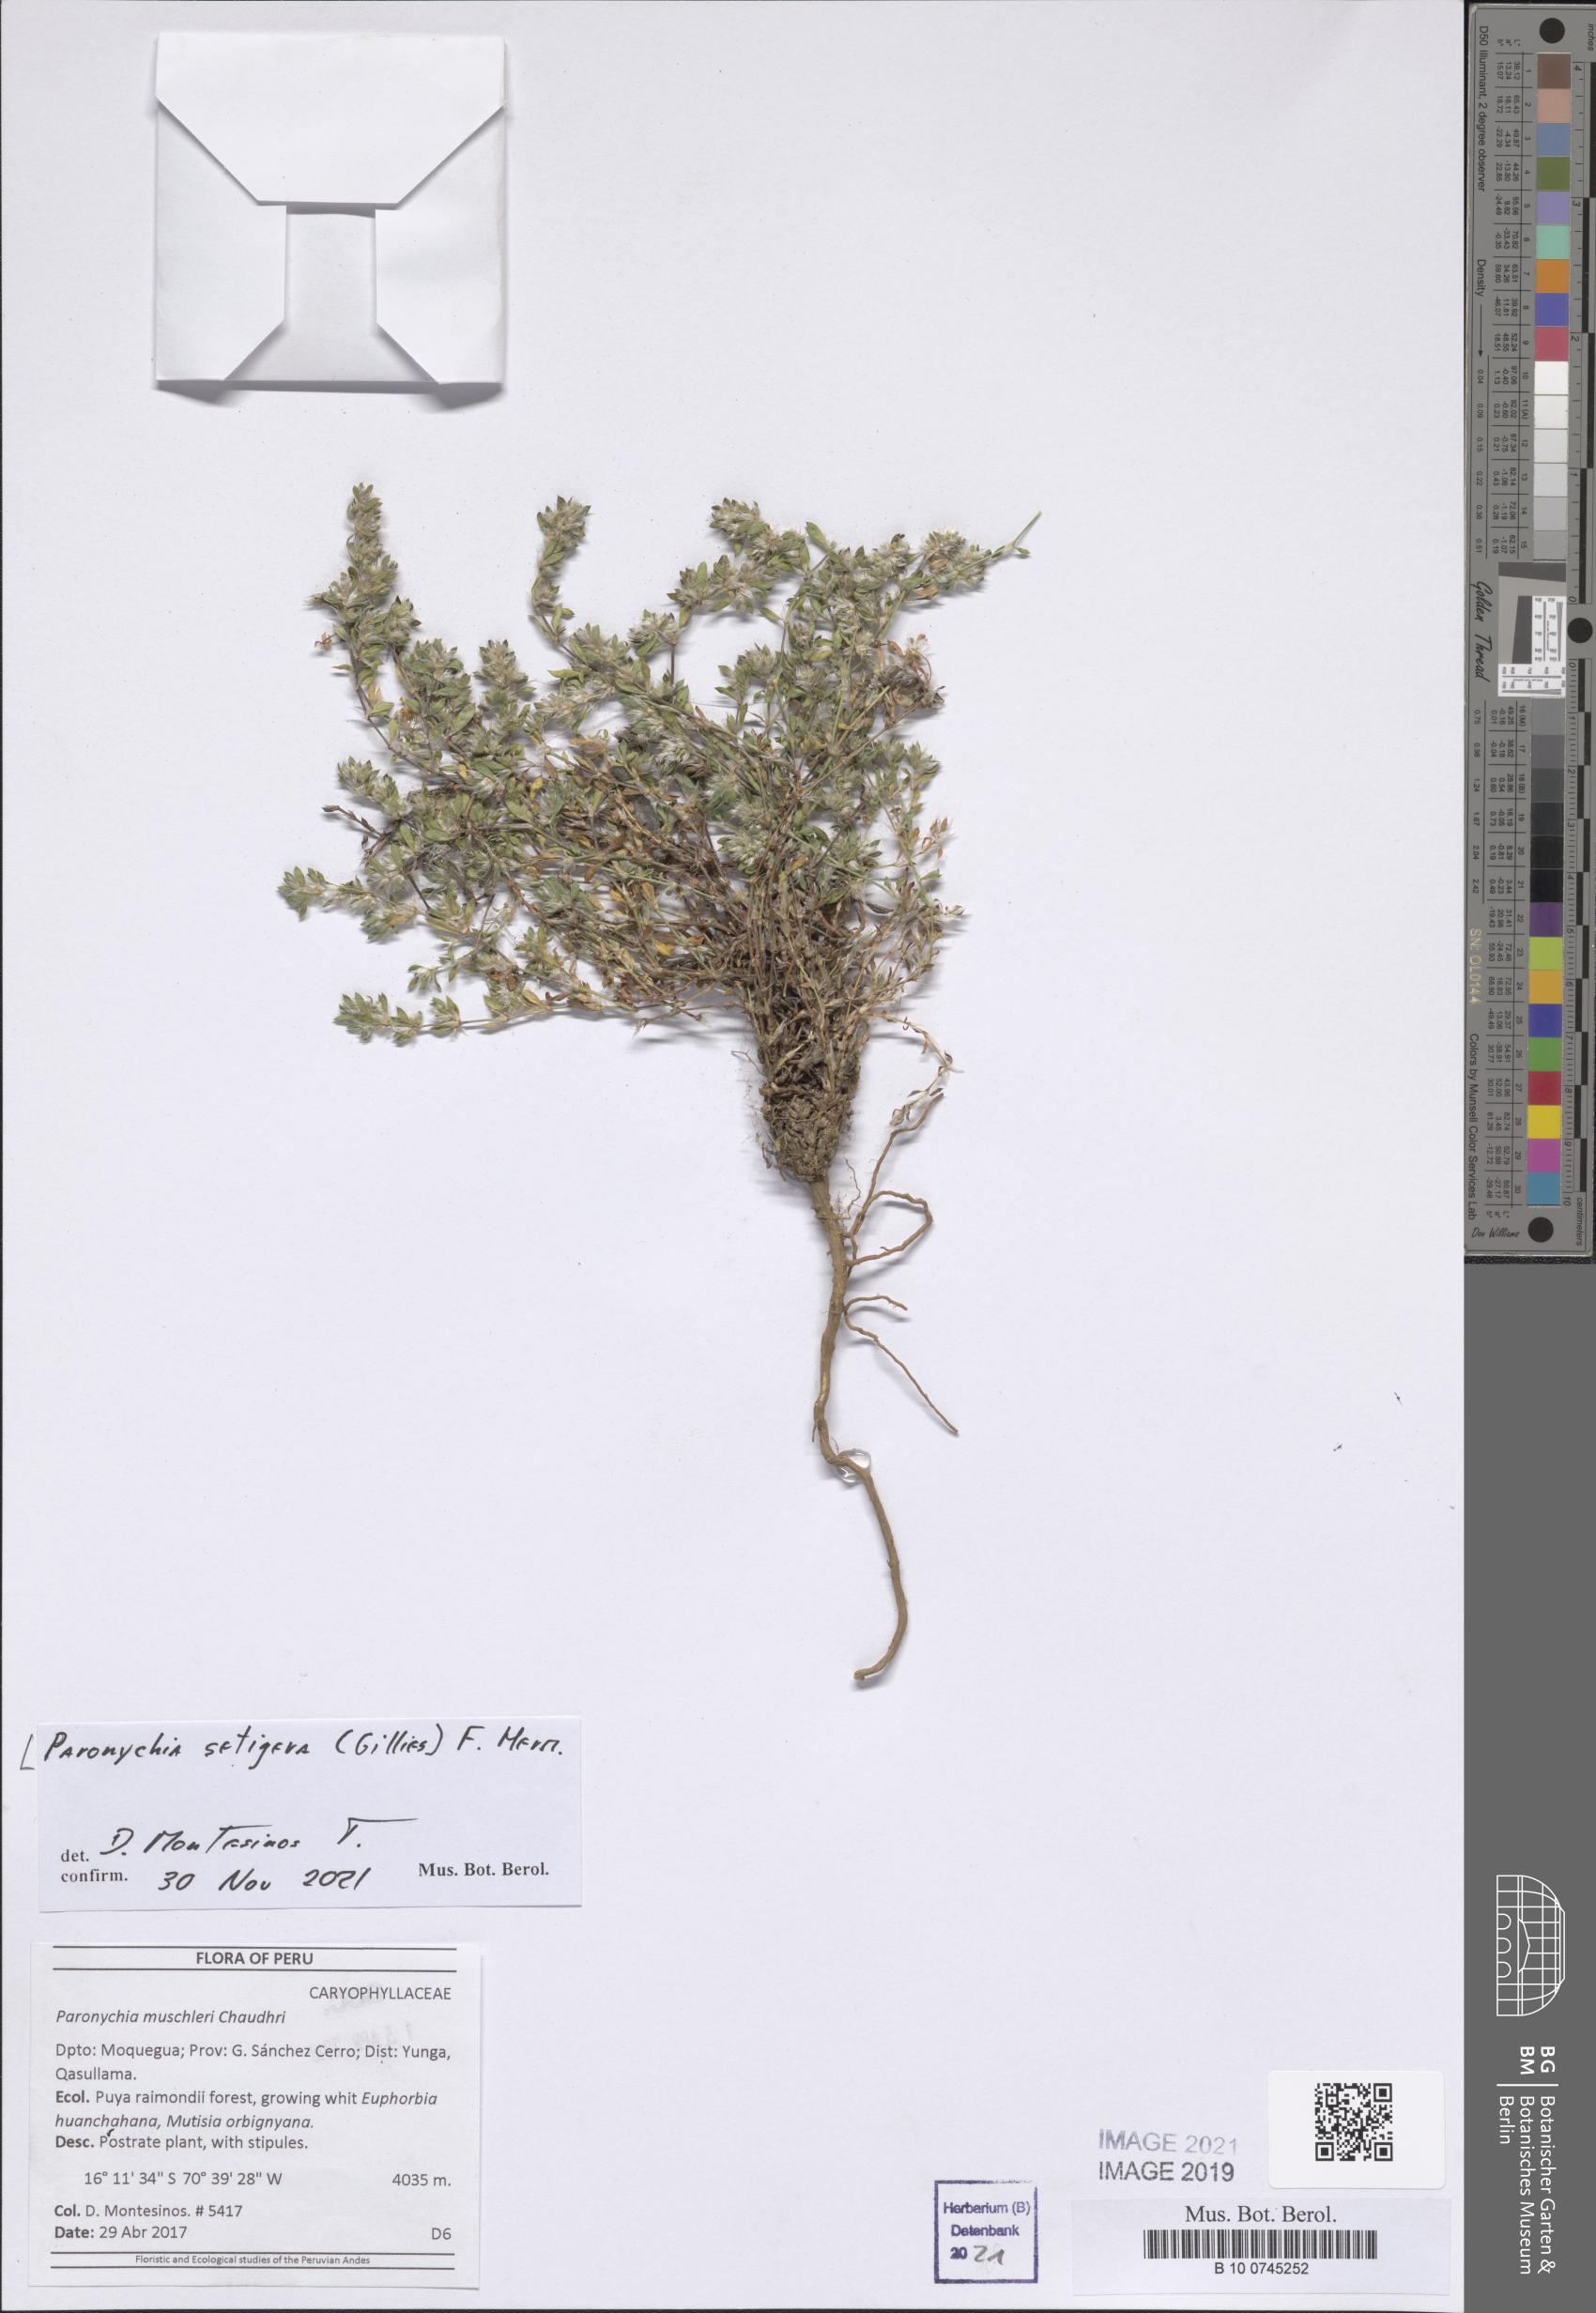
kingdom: Plantae
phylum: Tracheophyta
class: Magnoliopsida
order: Caryophyllales
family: Caryophyllaceae
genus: Paronychia
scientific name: Paronychia setigera
